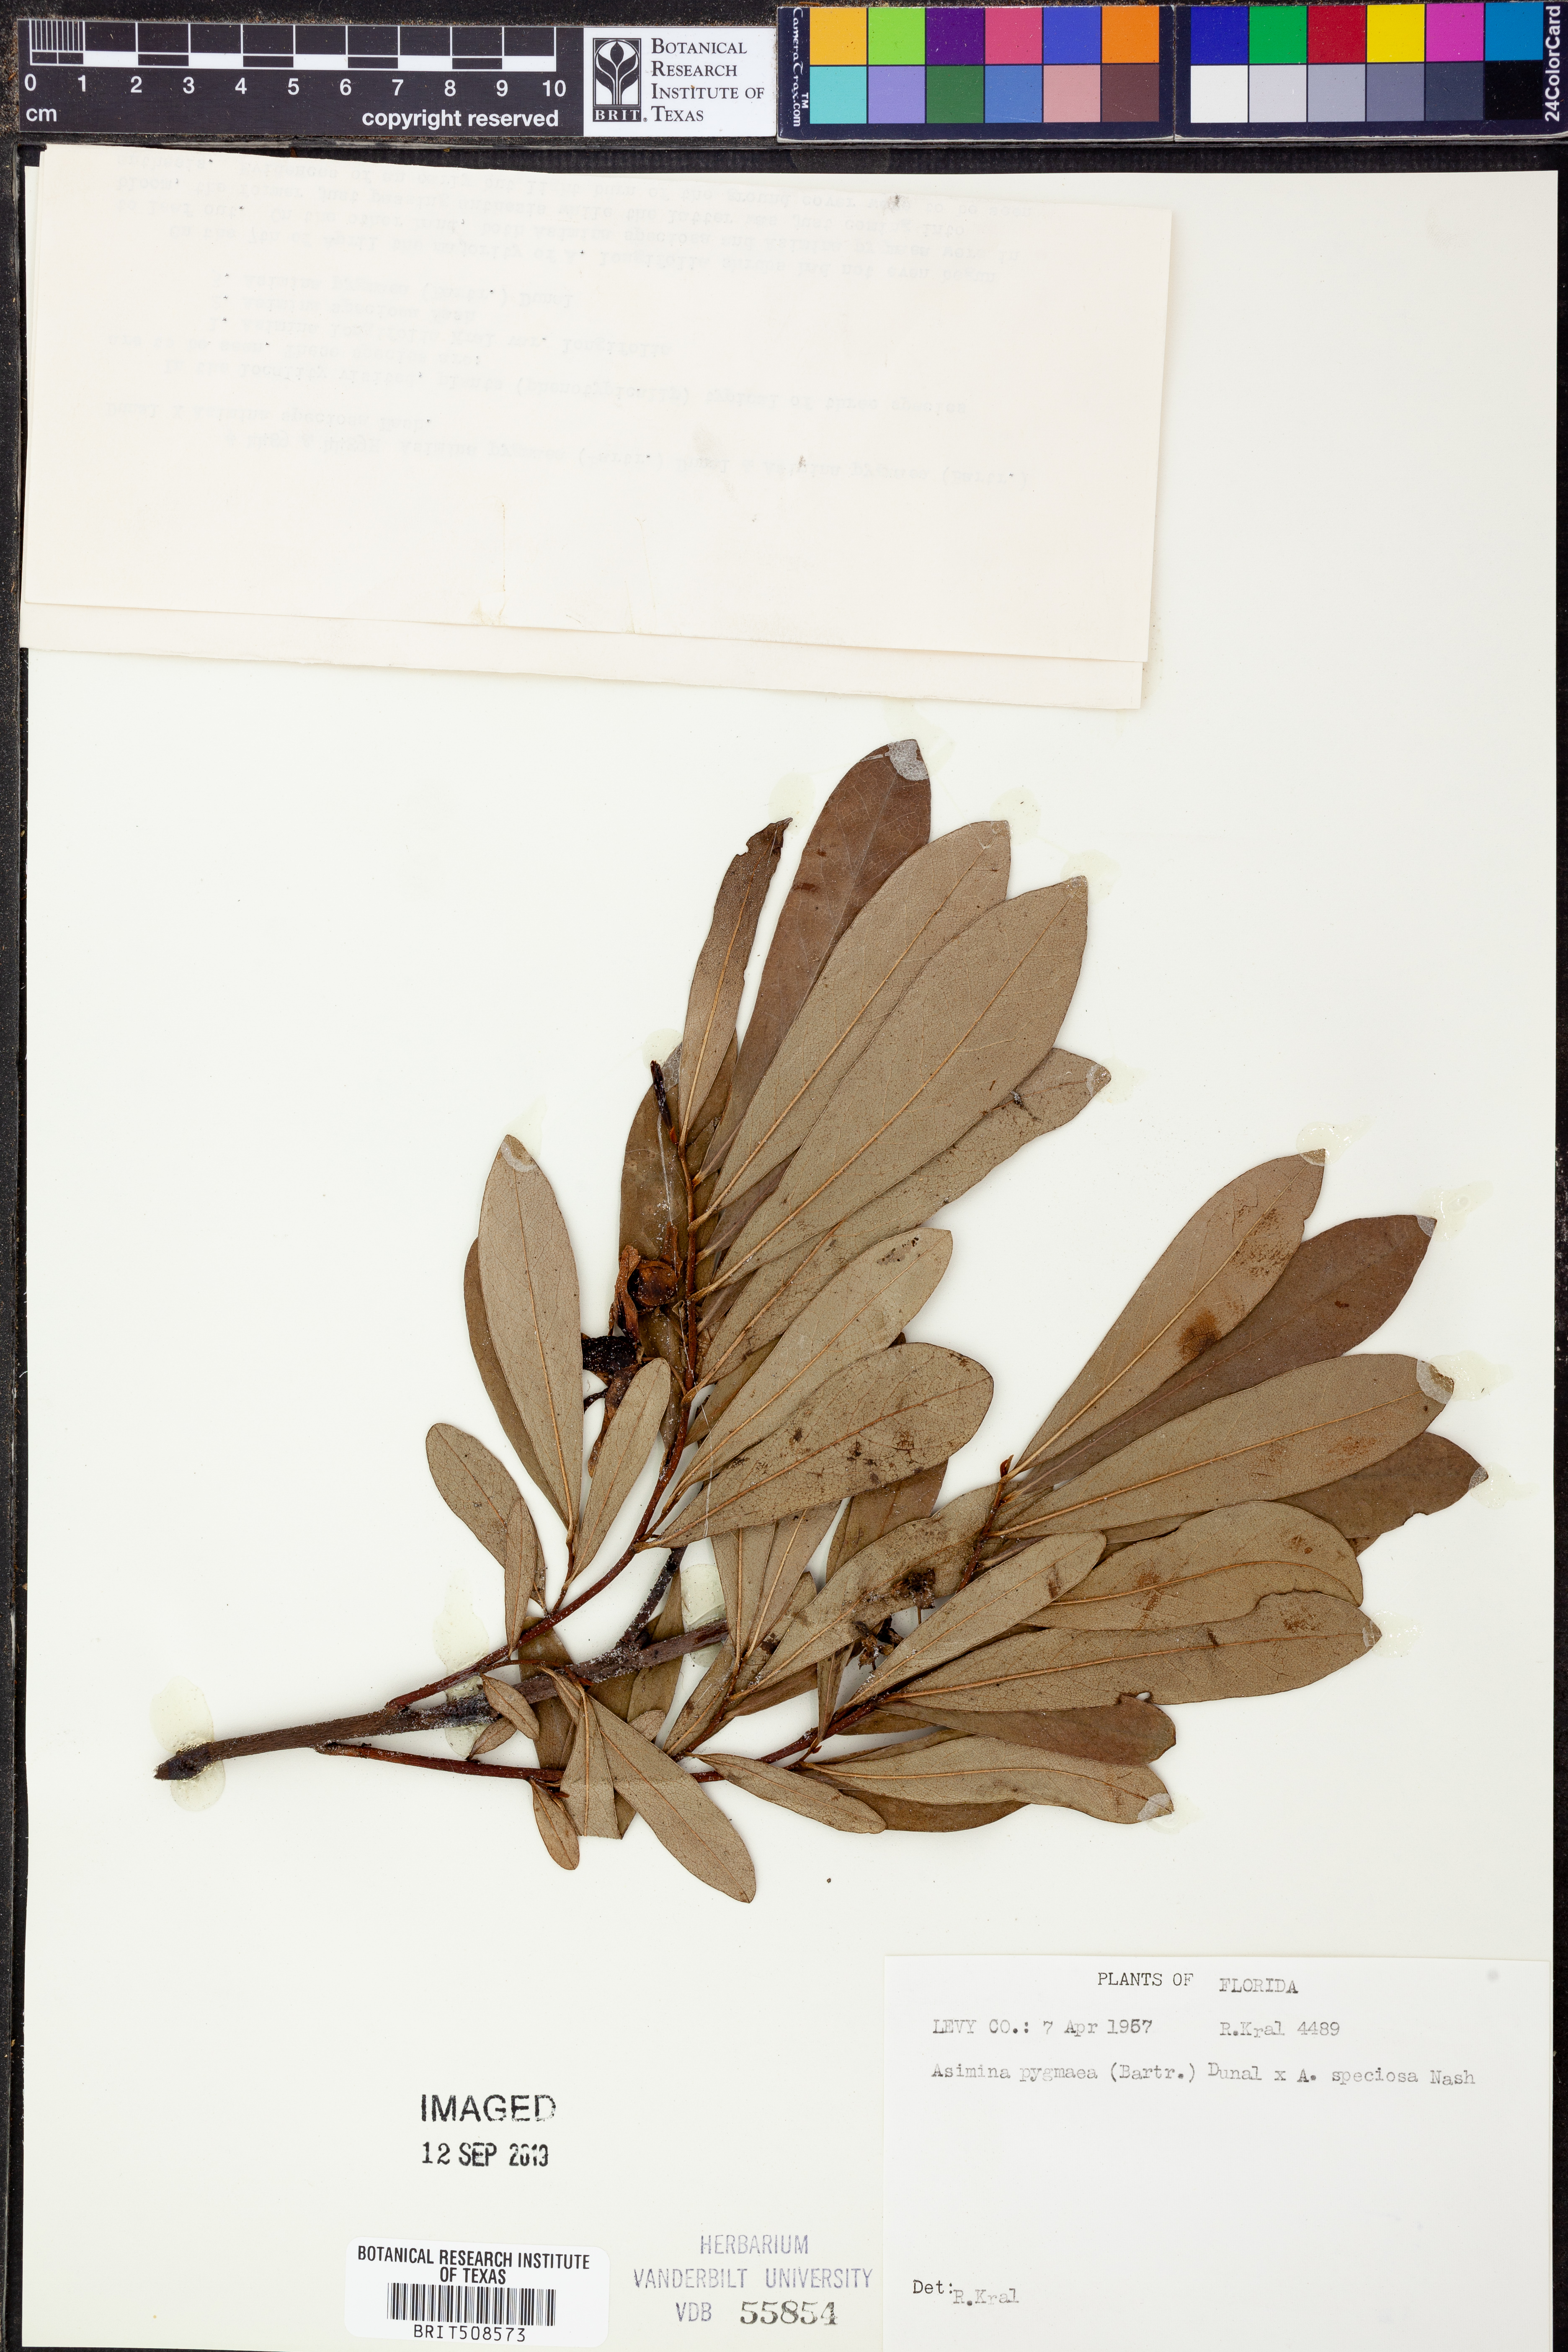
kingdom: Plantae
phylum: Tracheophyta
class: Magnoliopsida
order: Magnoliales
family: Annonaceae
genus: Asimina
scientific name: Asimina pygmaea
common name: Dwarf pawpaw
